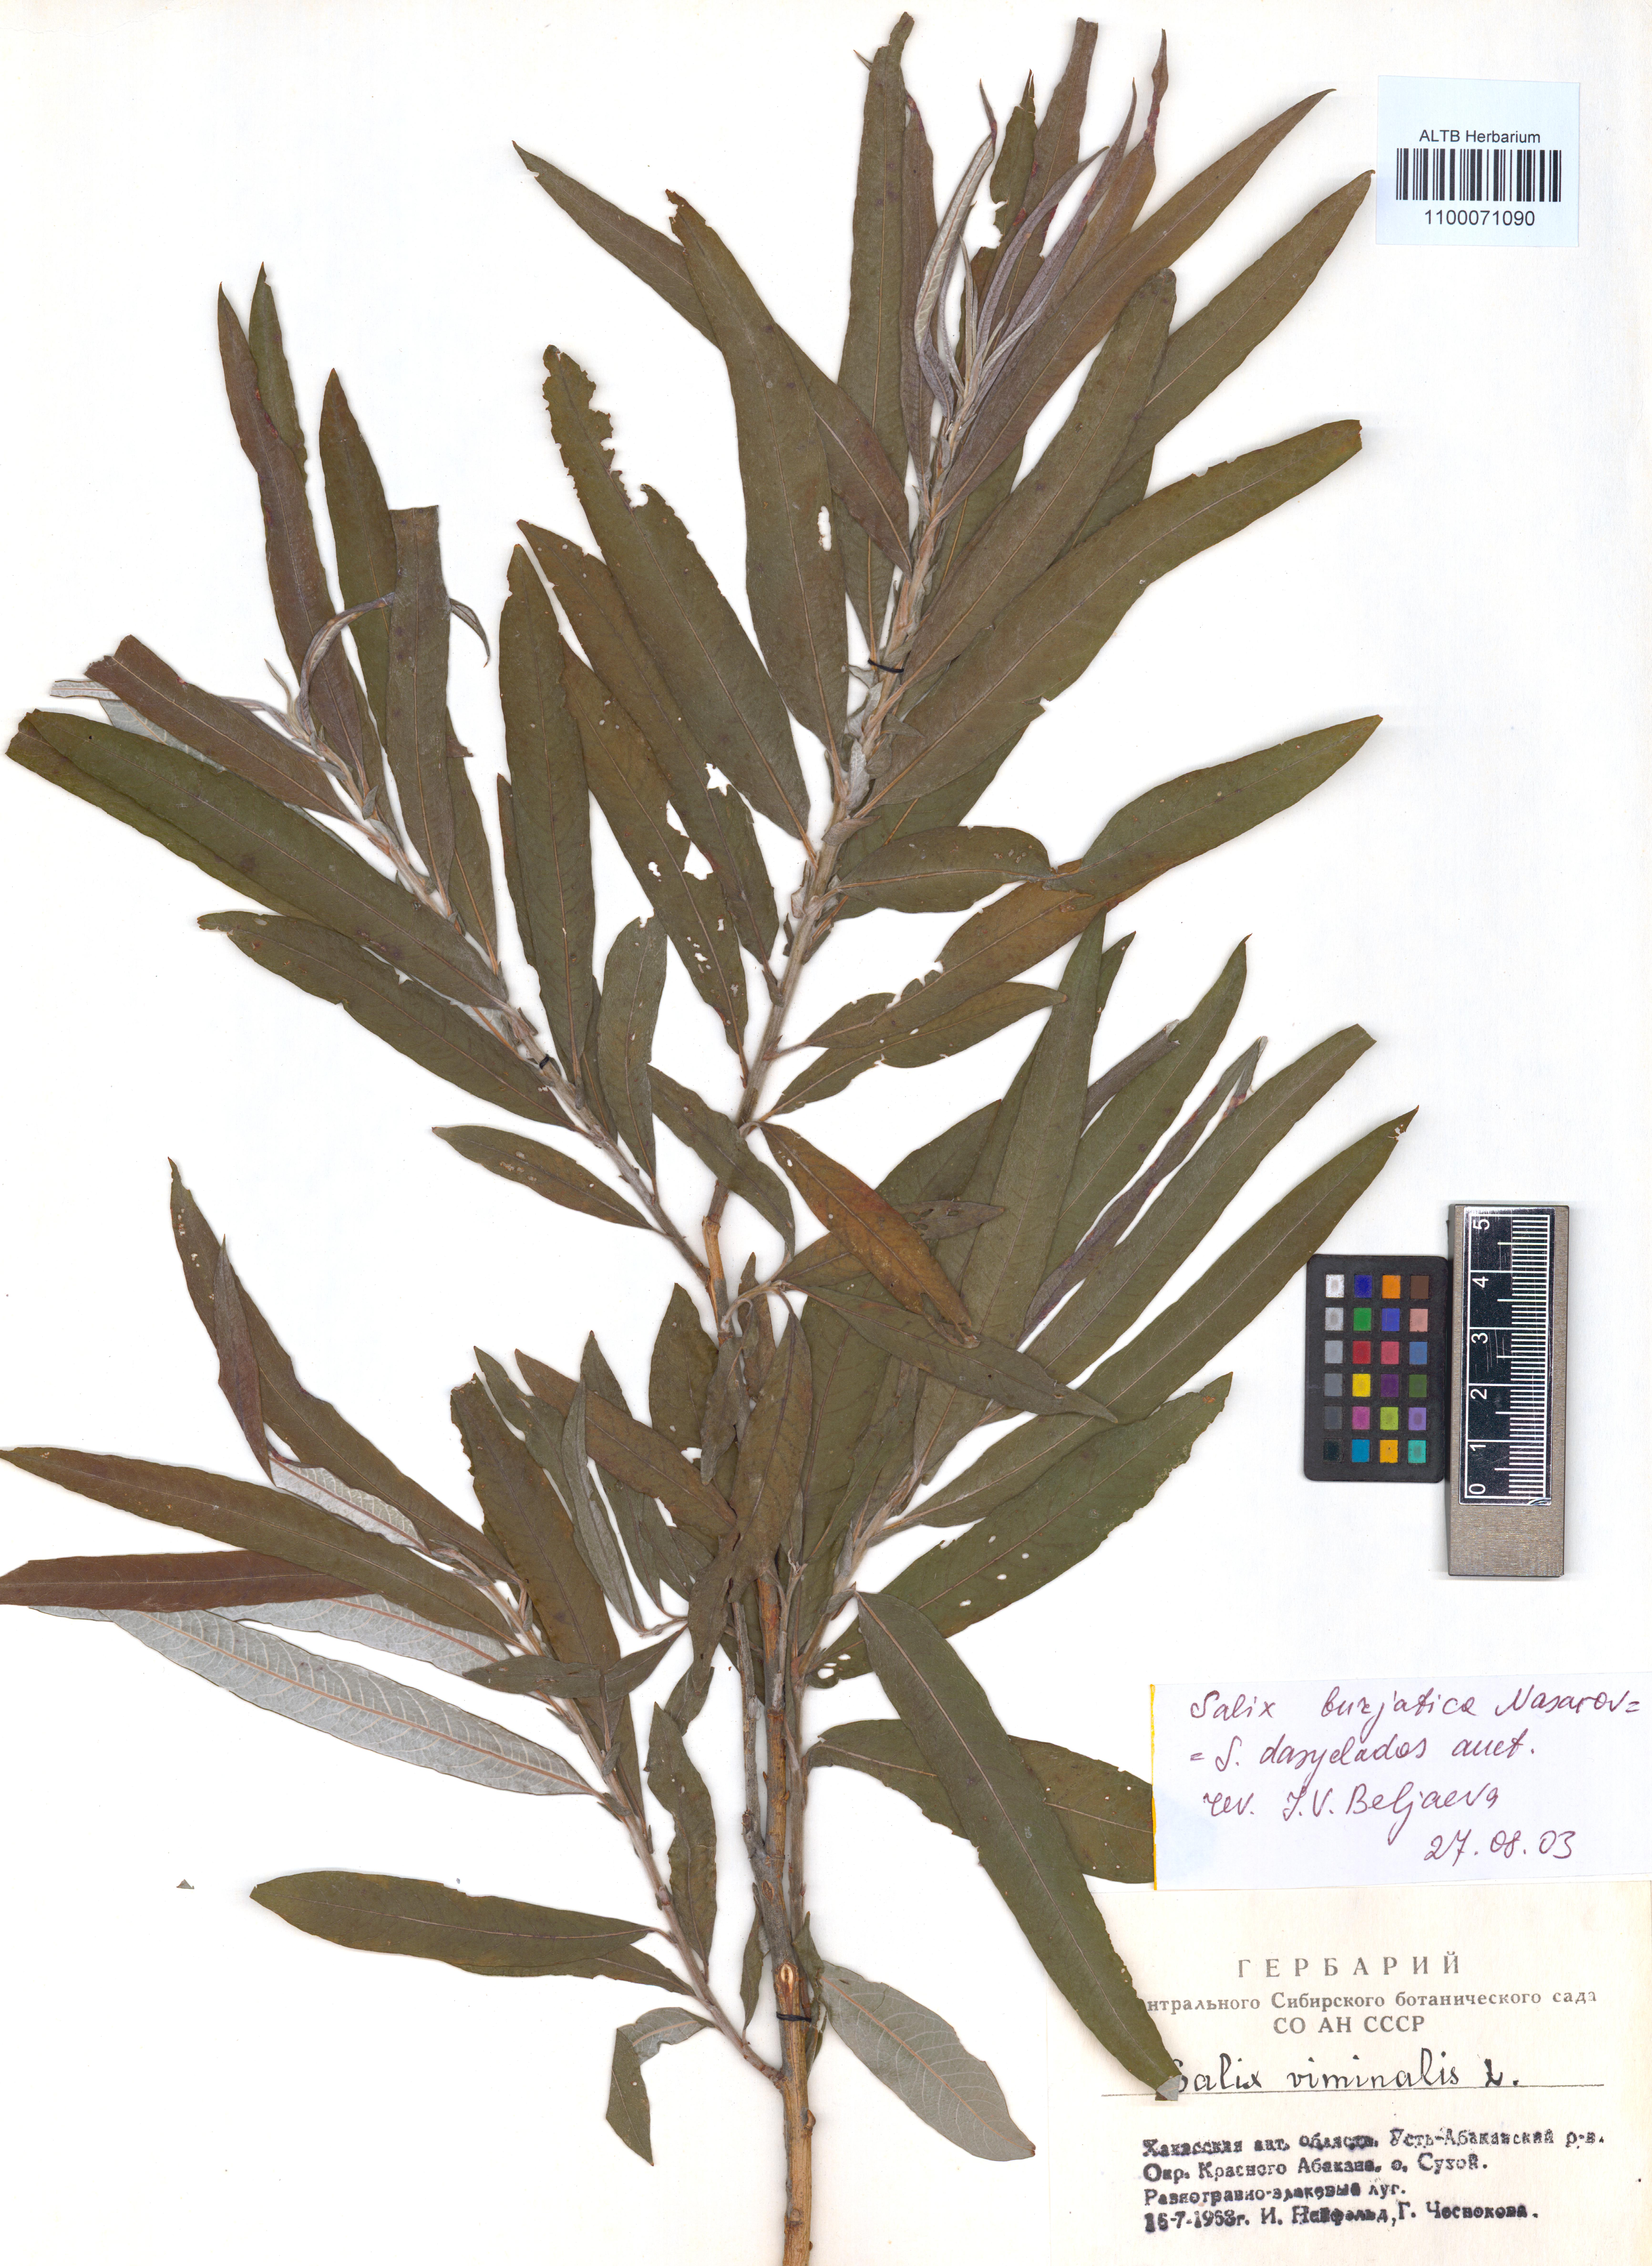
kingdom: Plantae
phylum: Tracheophyta
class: Magnoliopsida
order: Malpighiales
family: Salicaceae
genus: Salix
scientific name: Salix gmelinii
